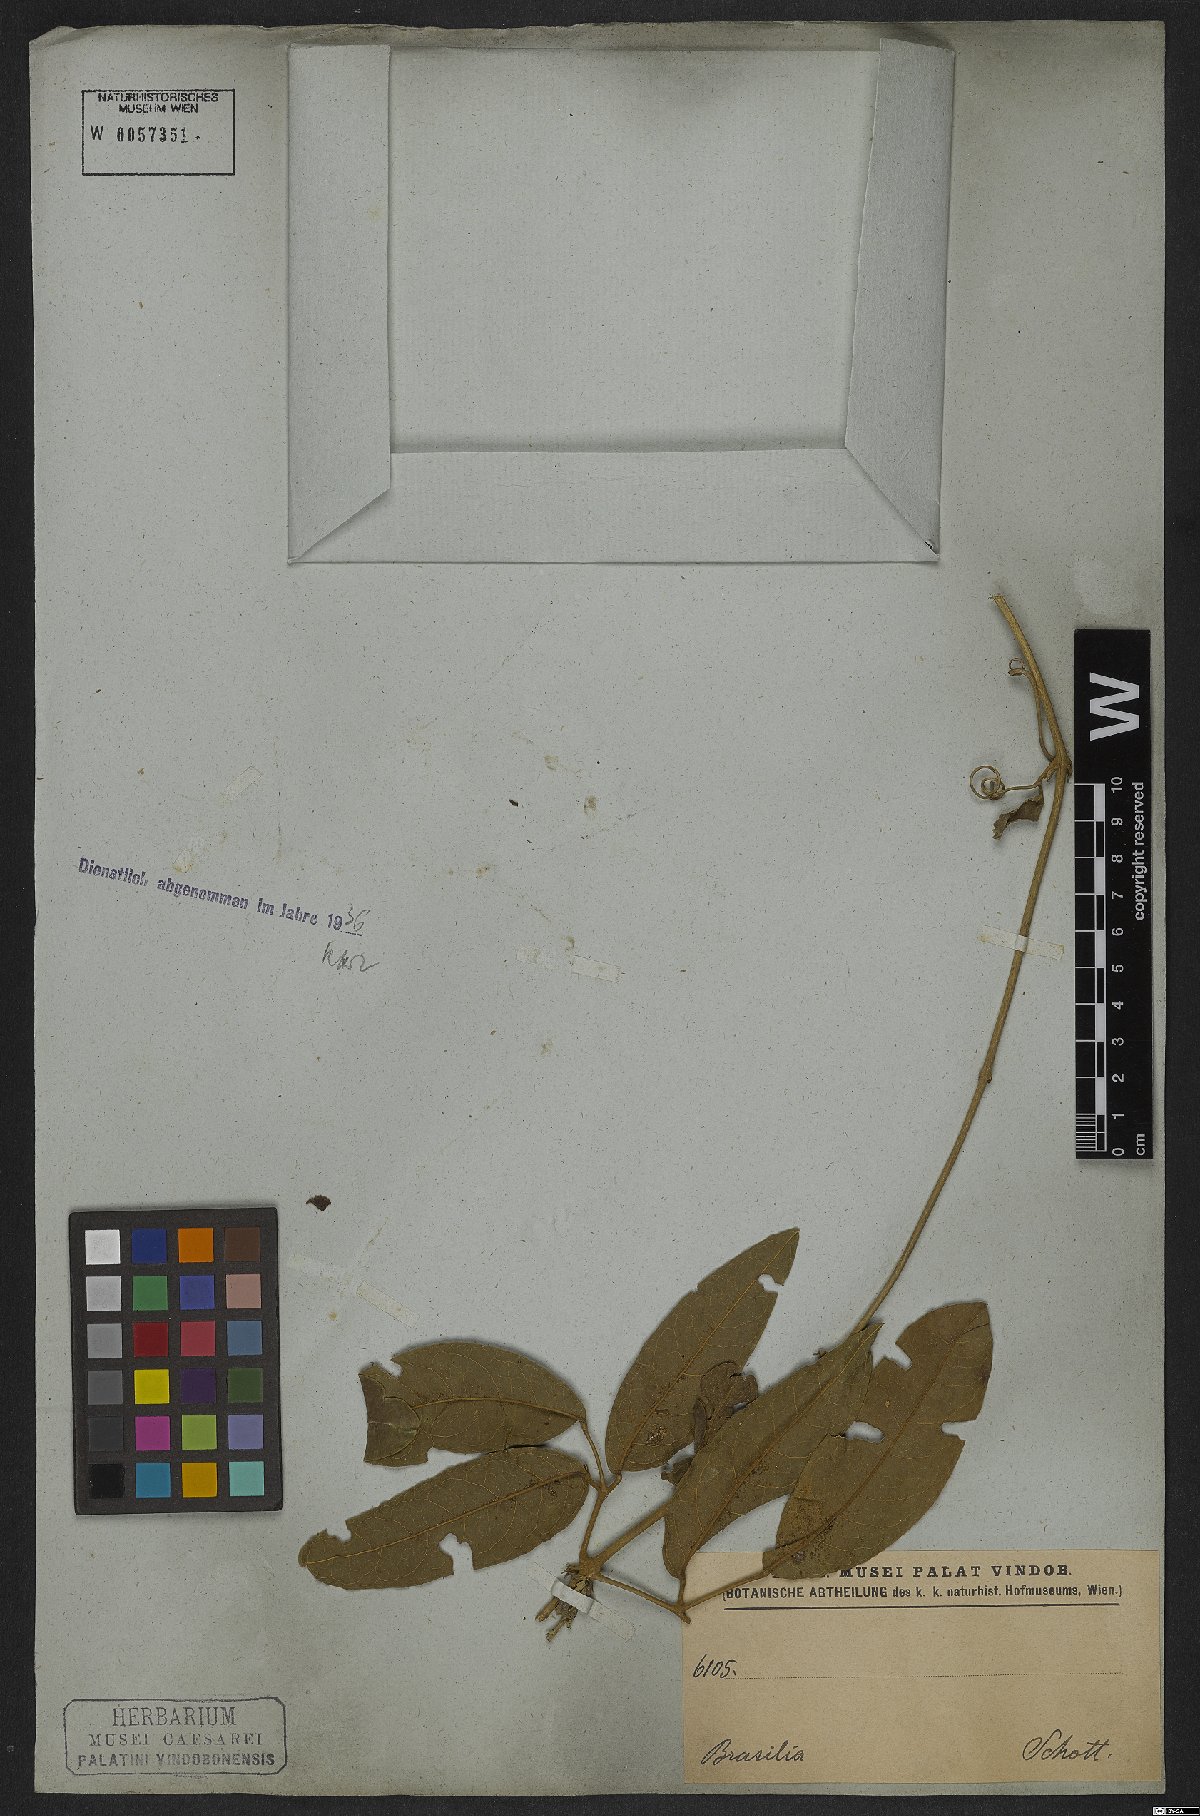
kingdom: Plantae
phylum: Tracheophyta
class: Magnoliopsida
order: Lamiales
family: Bignoniaceae
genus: Adenocalymma
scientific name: Adenocalymma acutissimum
